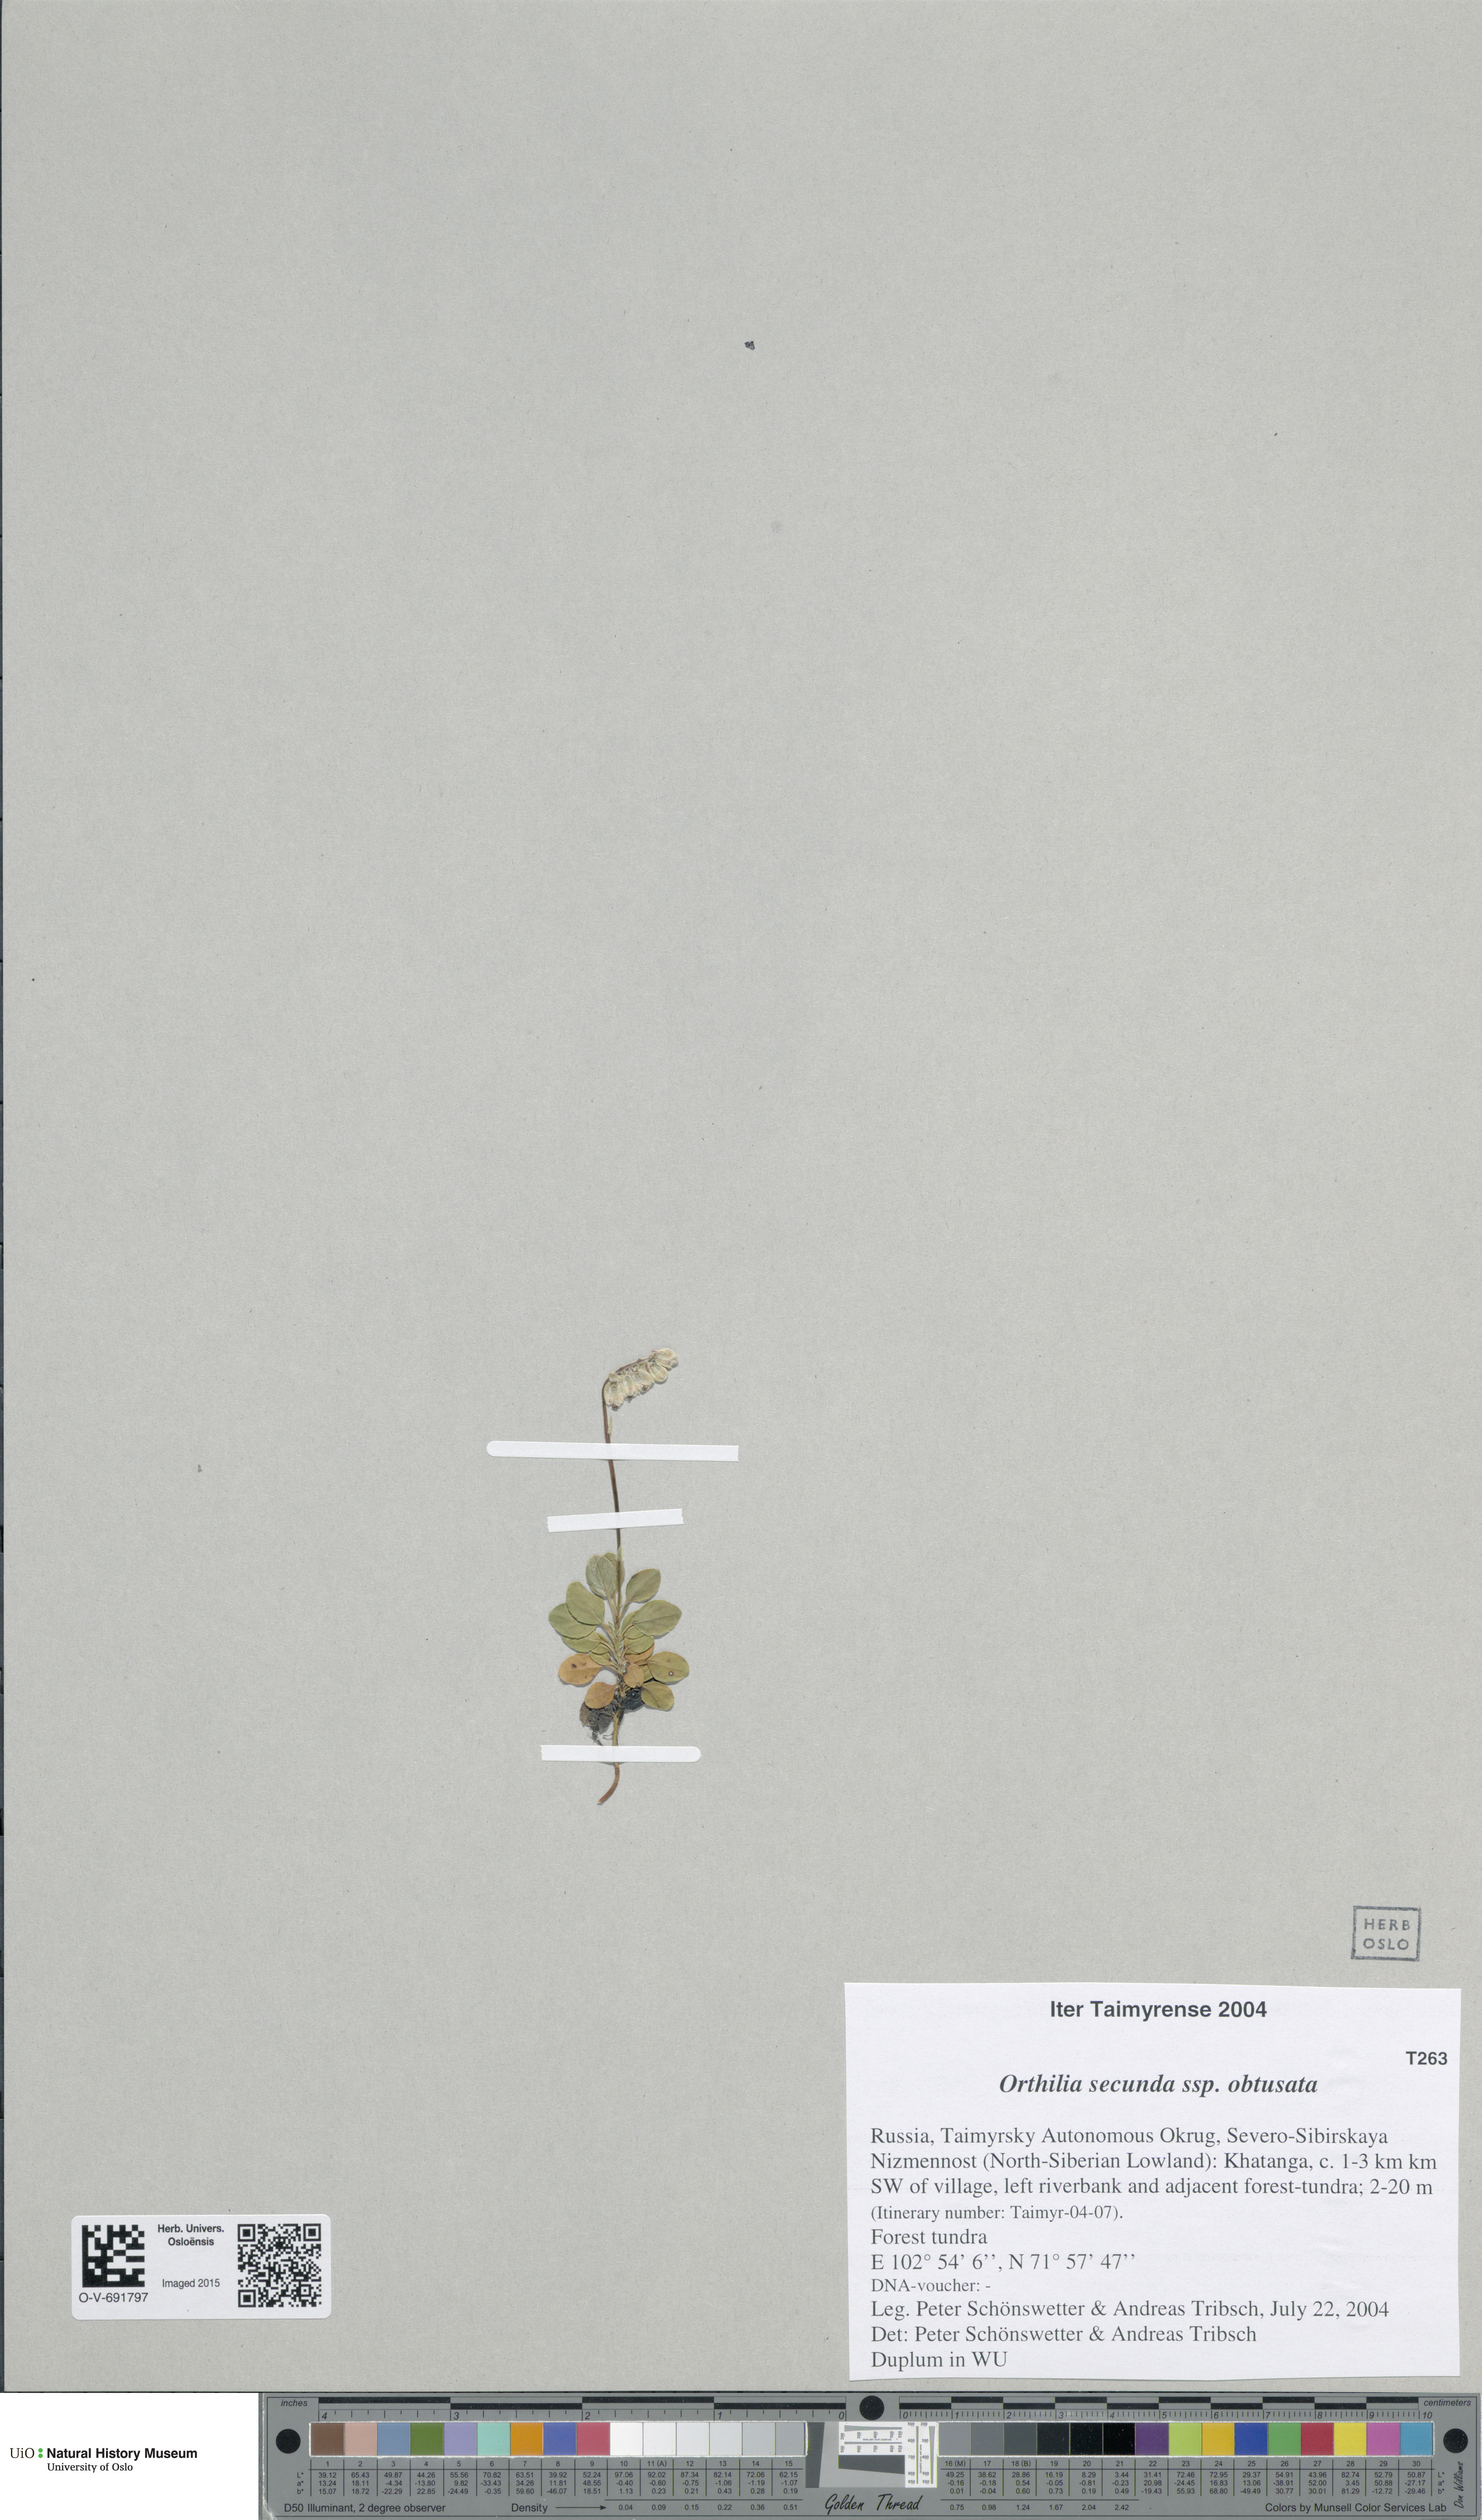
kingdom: Plantae
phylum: Tracheophyta
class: Magnoliopsida
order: Ericales
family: Ericaceae
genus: Orthilia
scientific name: Orthilia secunda
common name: One-sided orthilia
